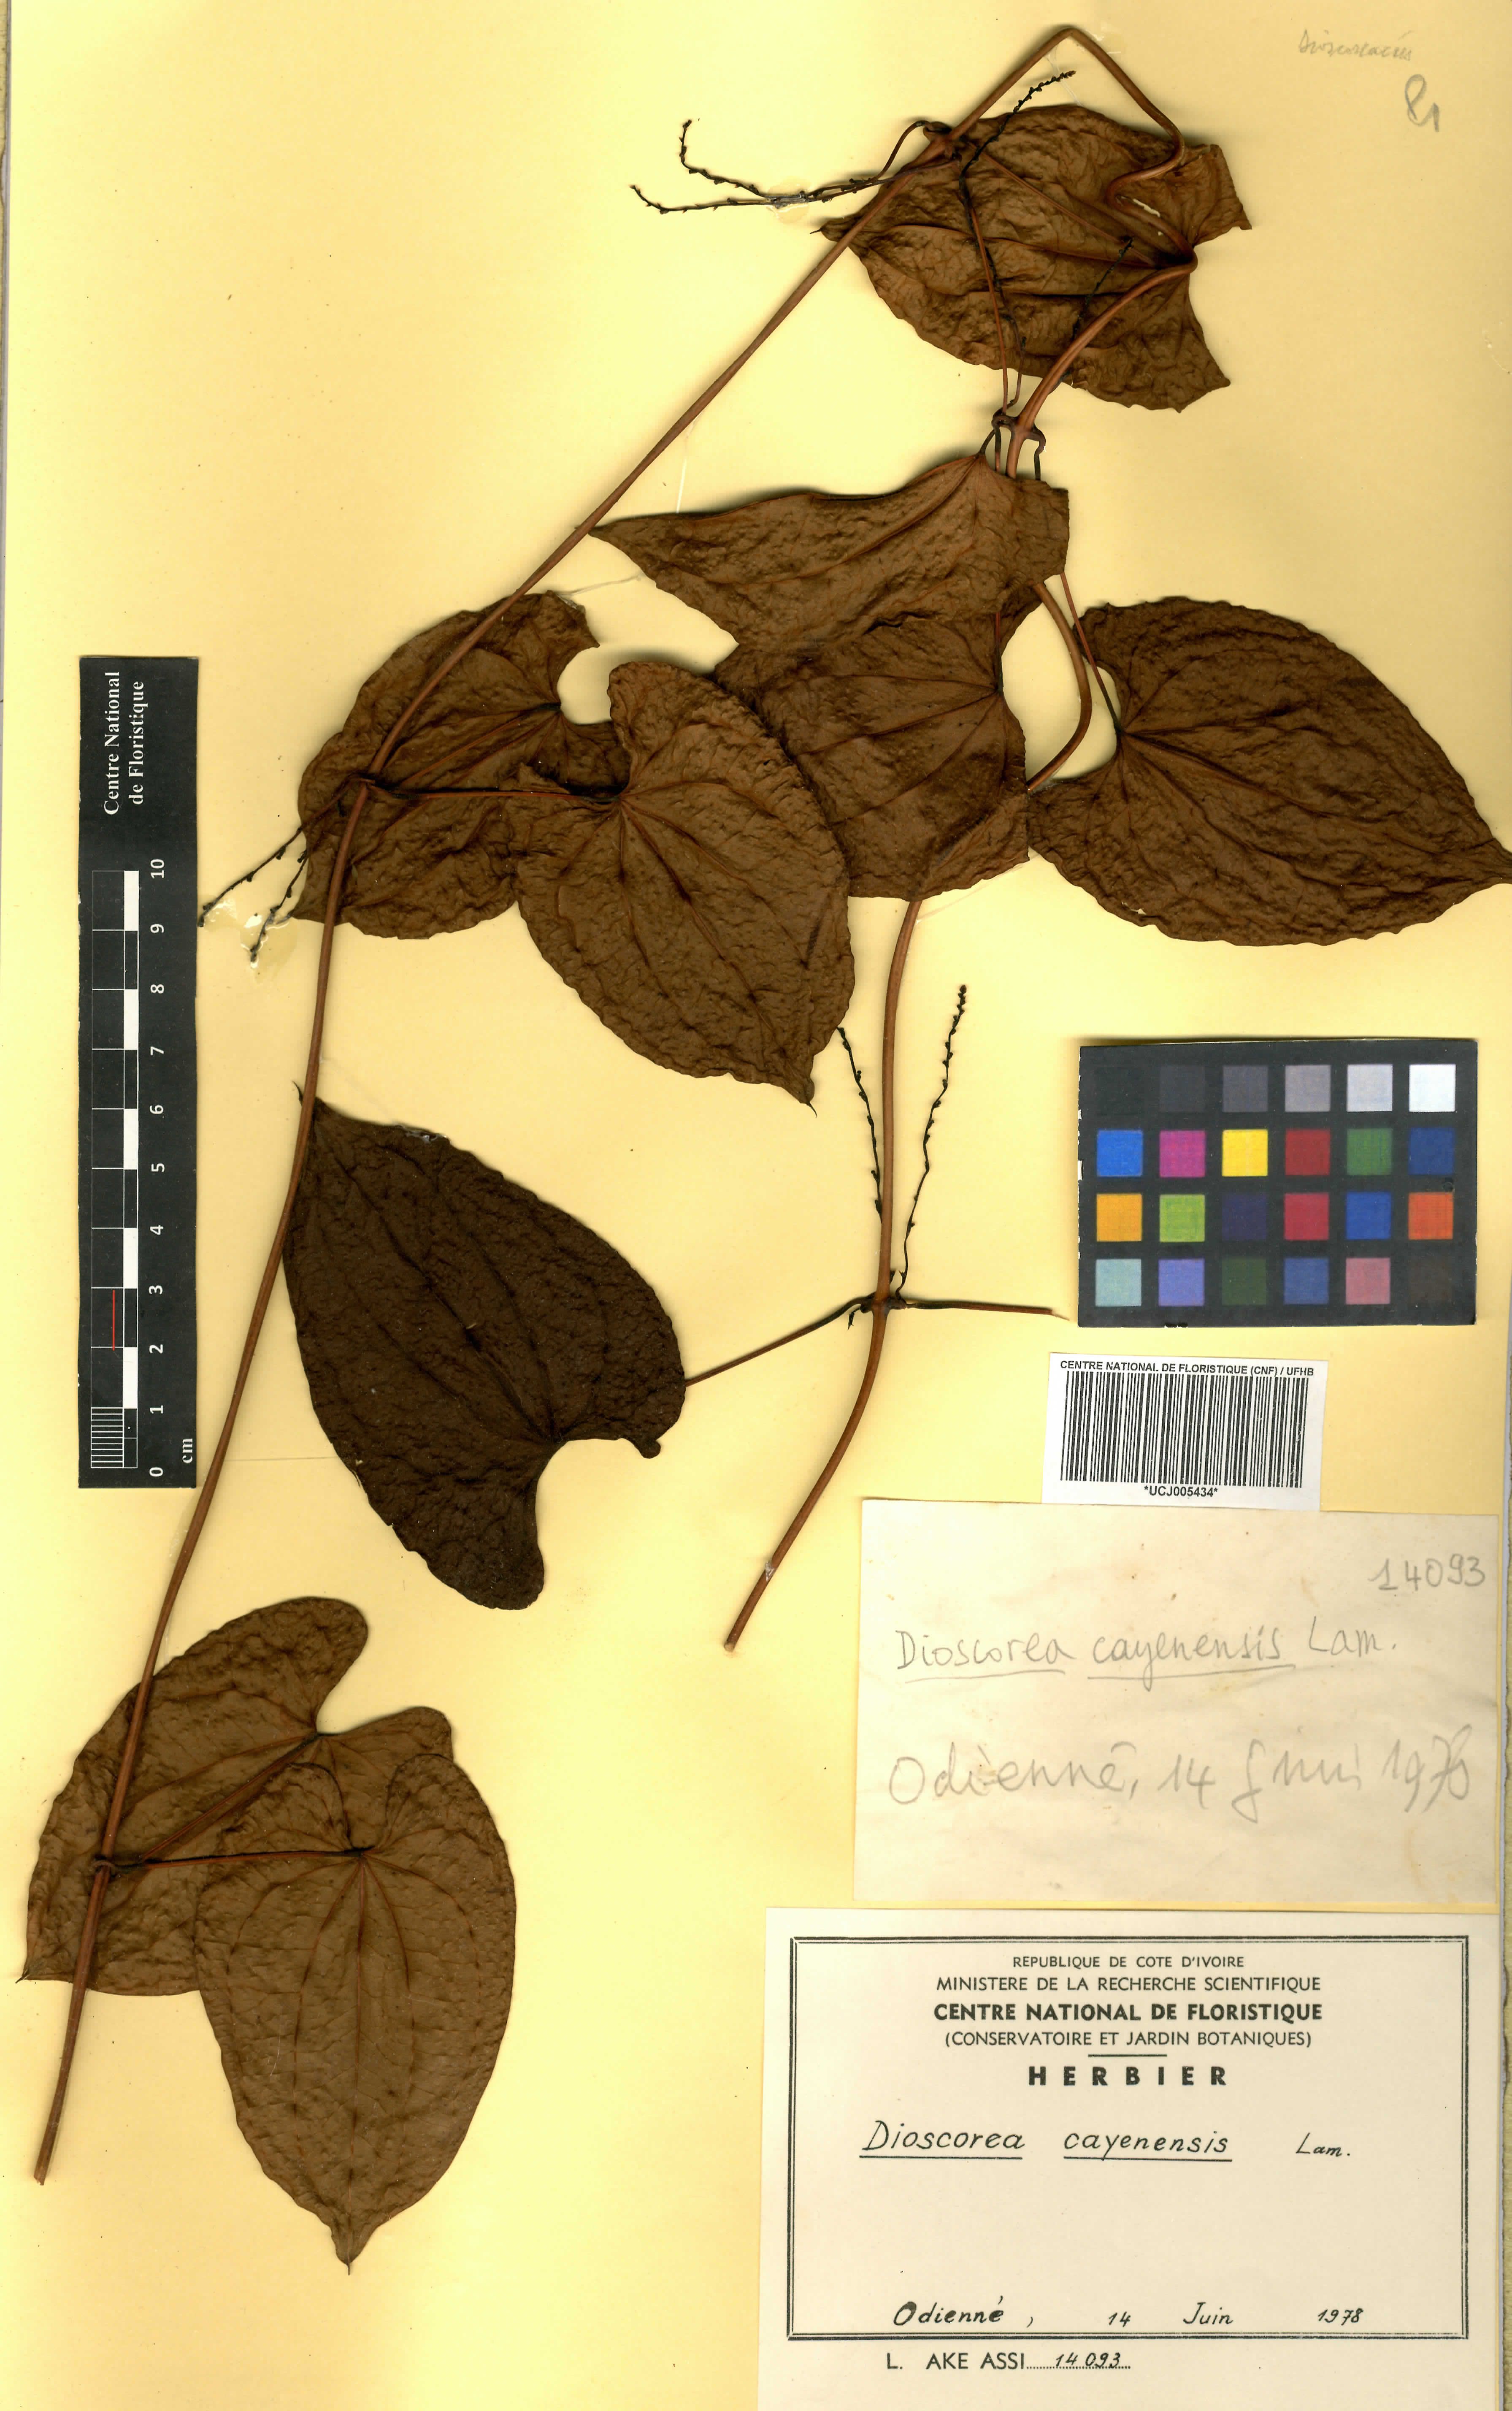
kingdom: Plantae
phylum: Tracheophyta
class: Liliopsida
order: Dioscoreales
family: Dioscoreaceae
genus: Dioscorea
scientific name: Dioscorea cayenensis
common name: Attoto yam
